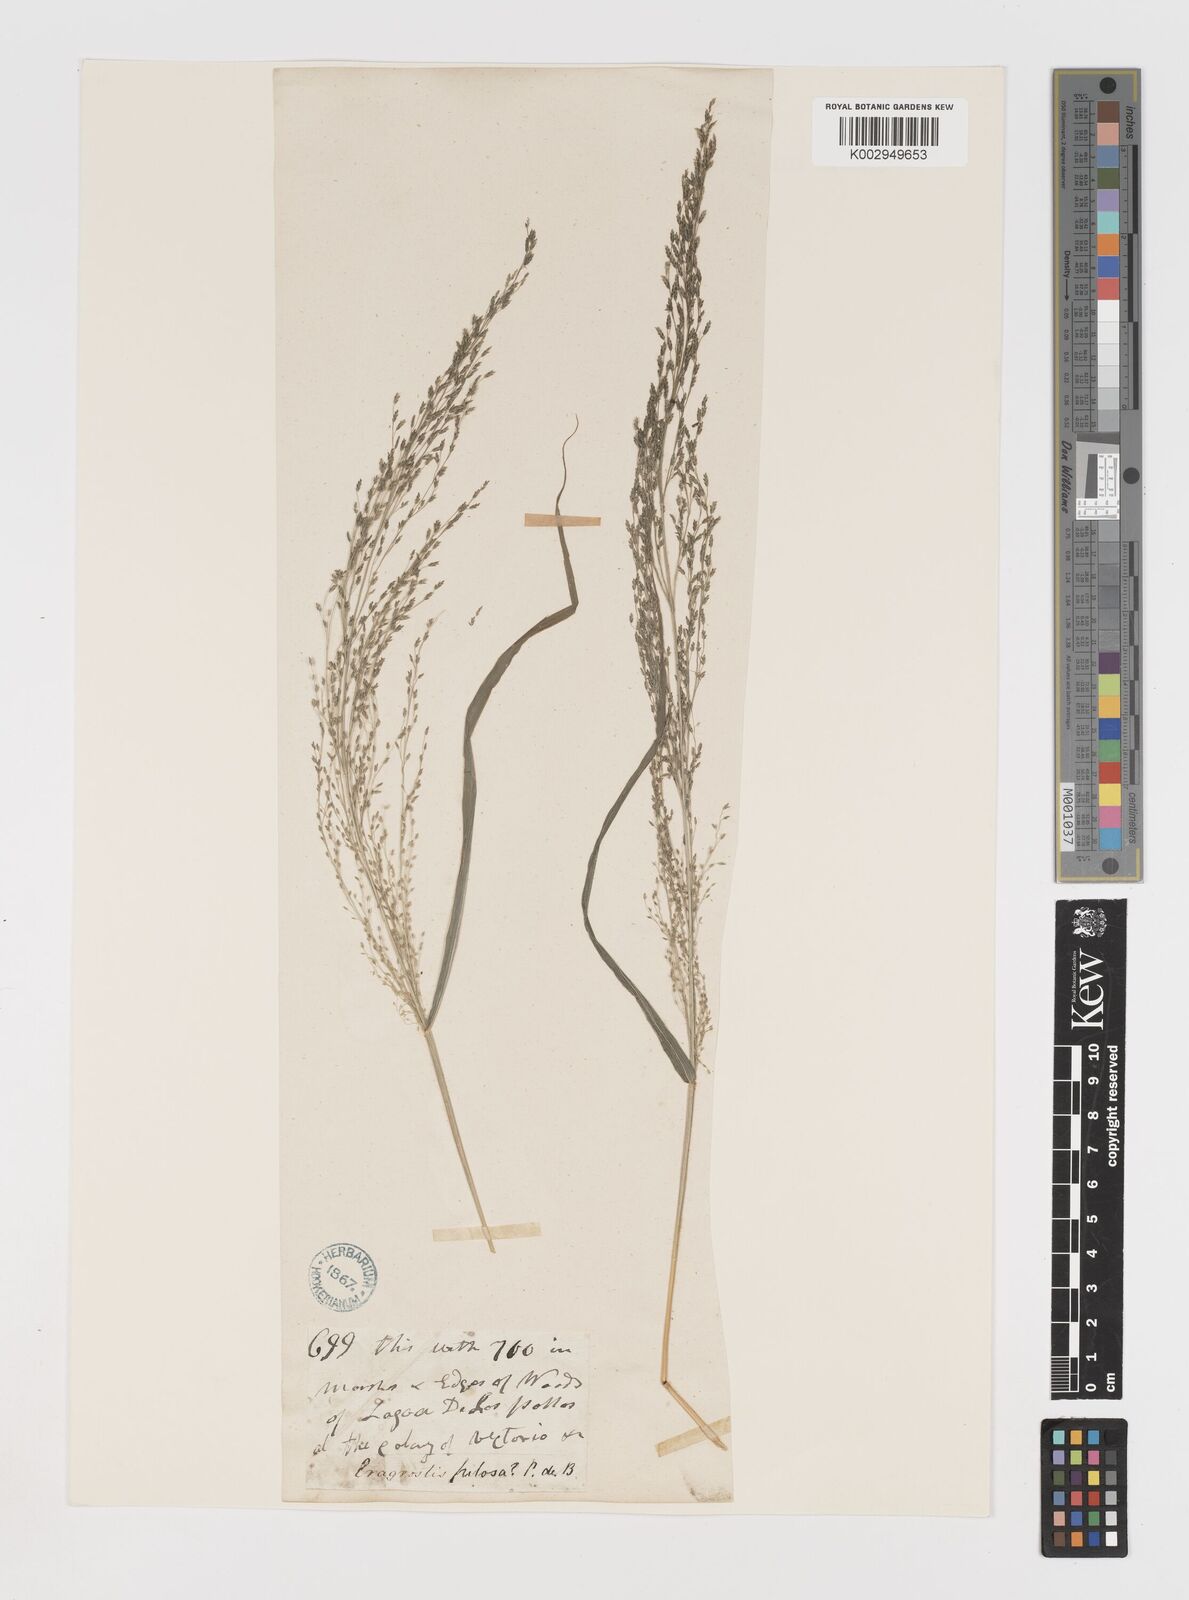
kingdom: Plantae
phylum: Tracheophyta
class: Liliopsida
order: Poales
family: Poaceae
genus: Eragrostis
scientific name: Eragrostis mexicana
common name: Mexican love grass
